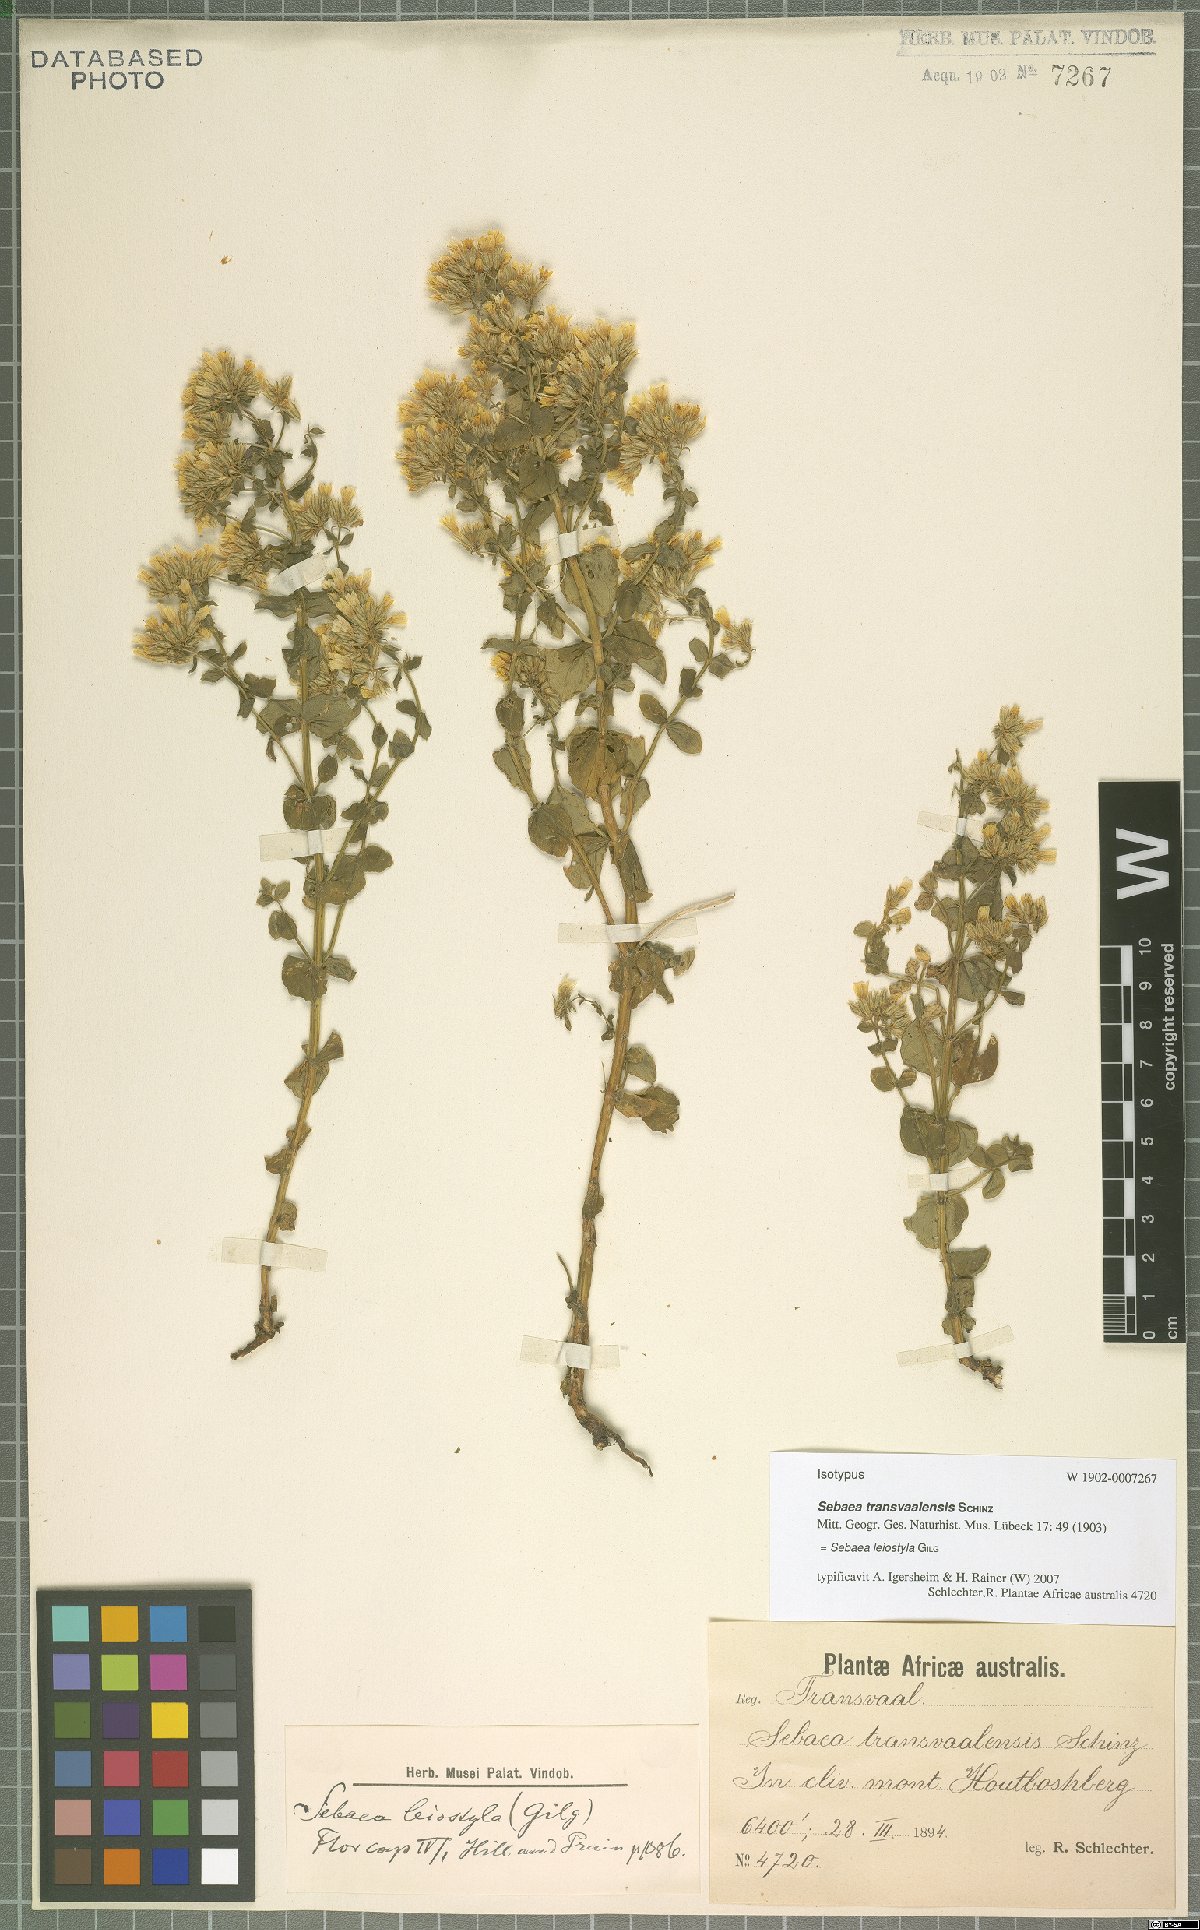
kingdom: Plantae
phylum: Tracheophyta
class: Magnoliopsida
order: Gentianales
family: Gentianaceae
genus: Sebaea
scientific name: Sebaea leiostyla
